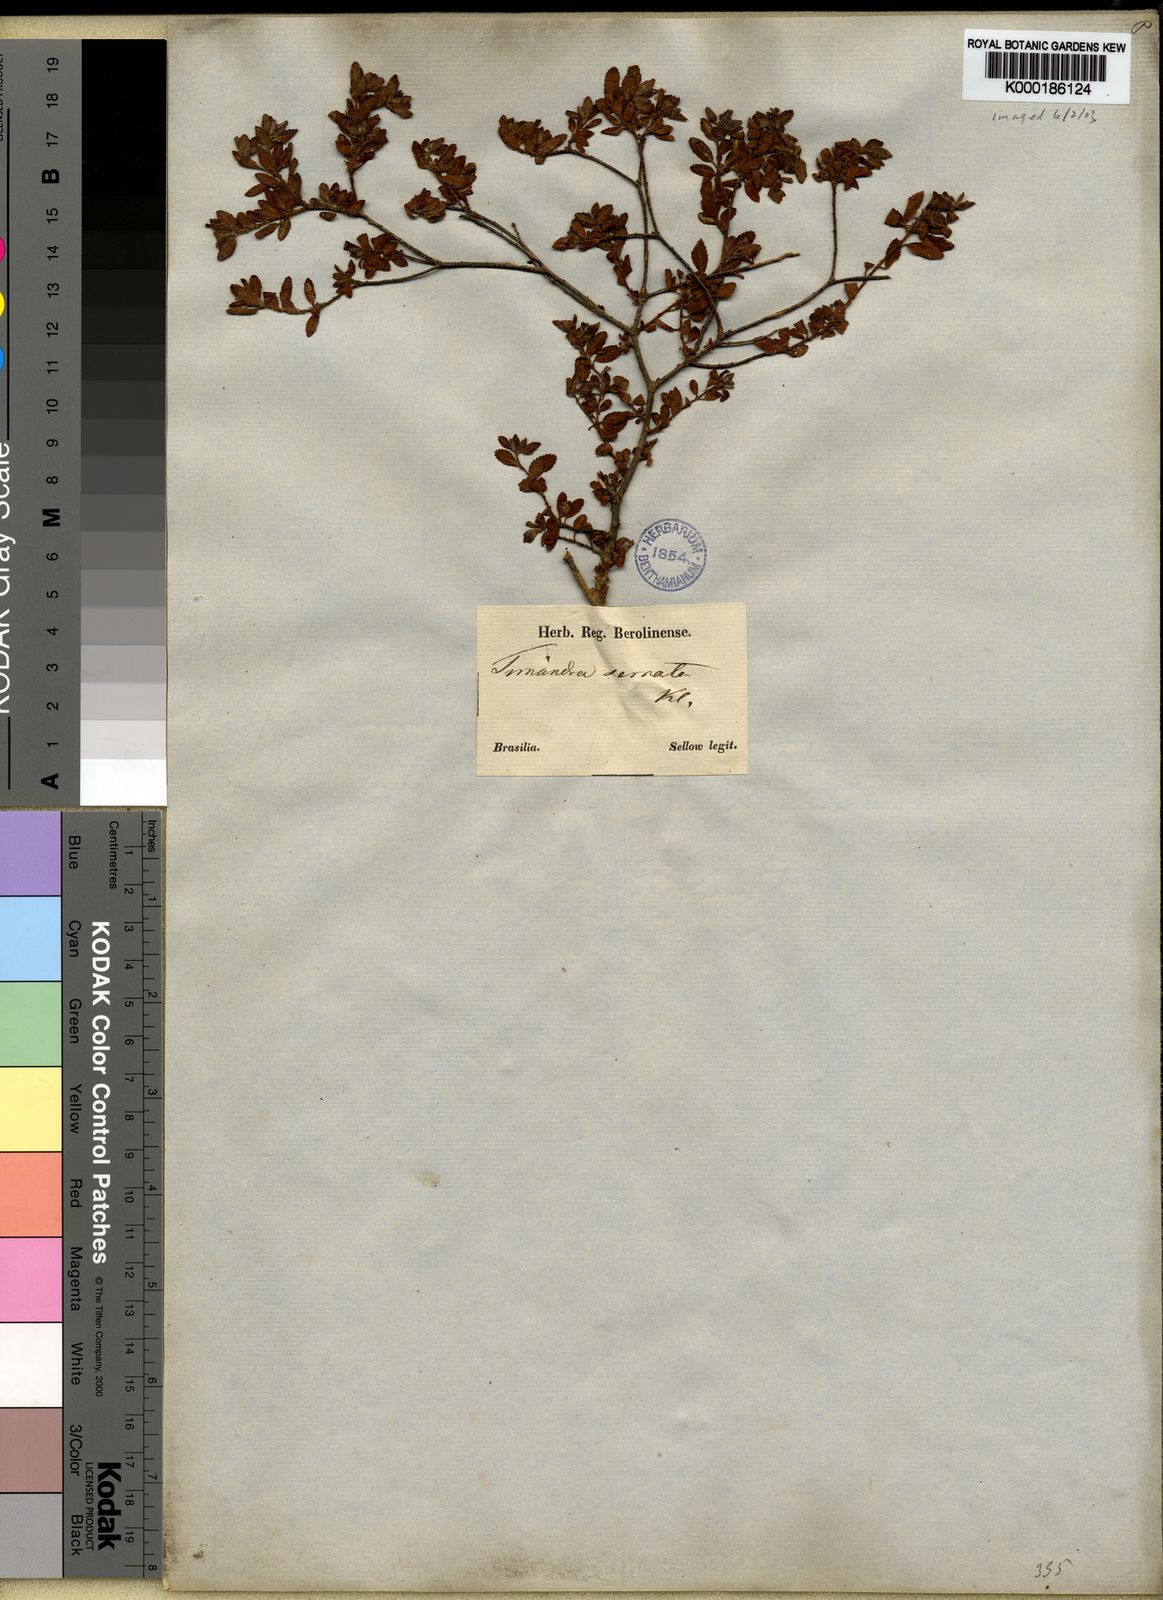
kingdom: Plantae
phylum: Tracheophyta
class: Magnoliopsida
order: Malpighiales
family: Euphorbiaceae
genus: Croton
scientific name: Croton
